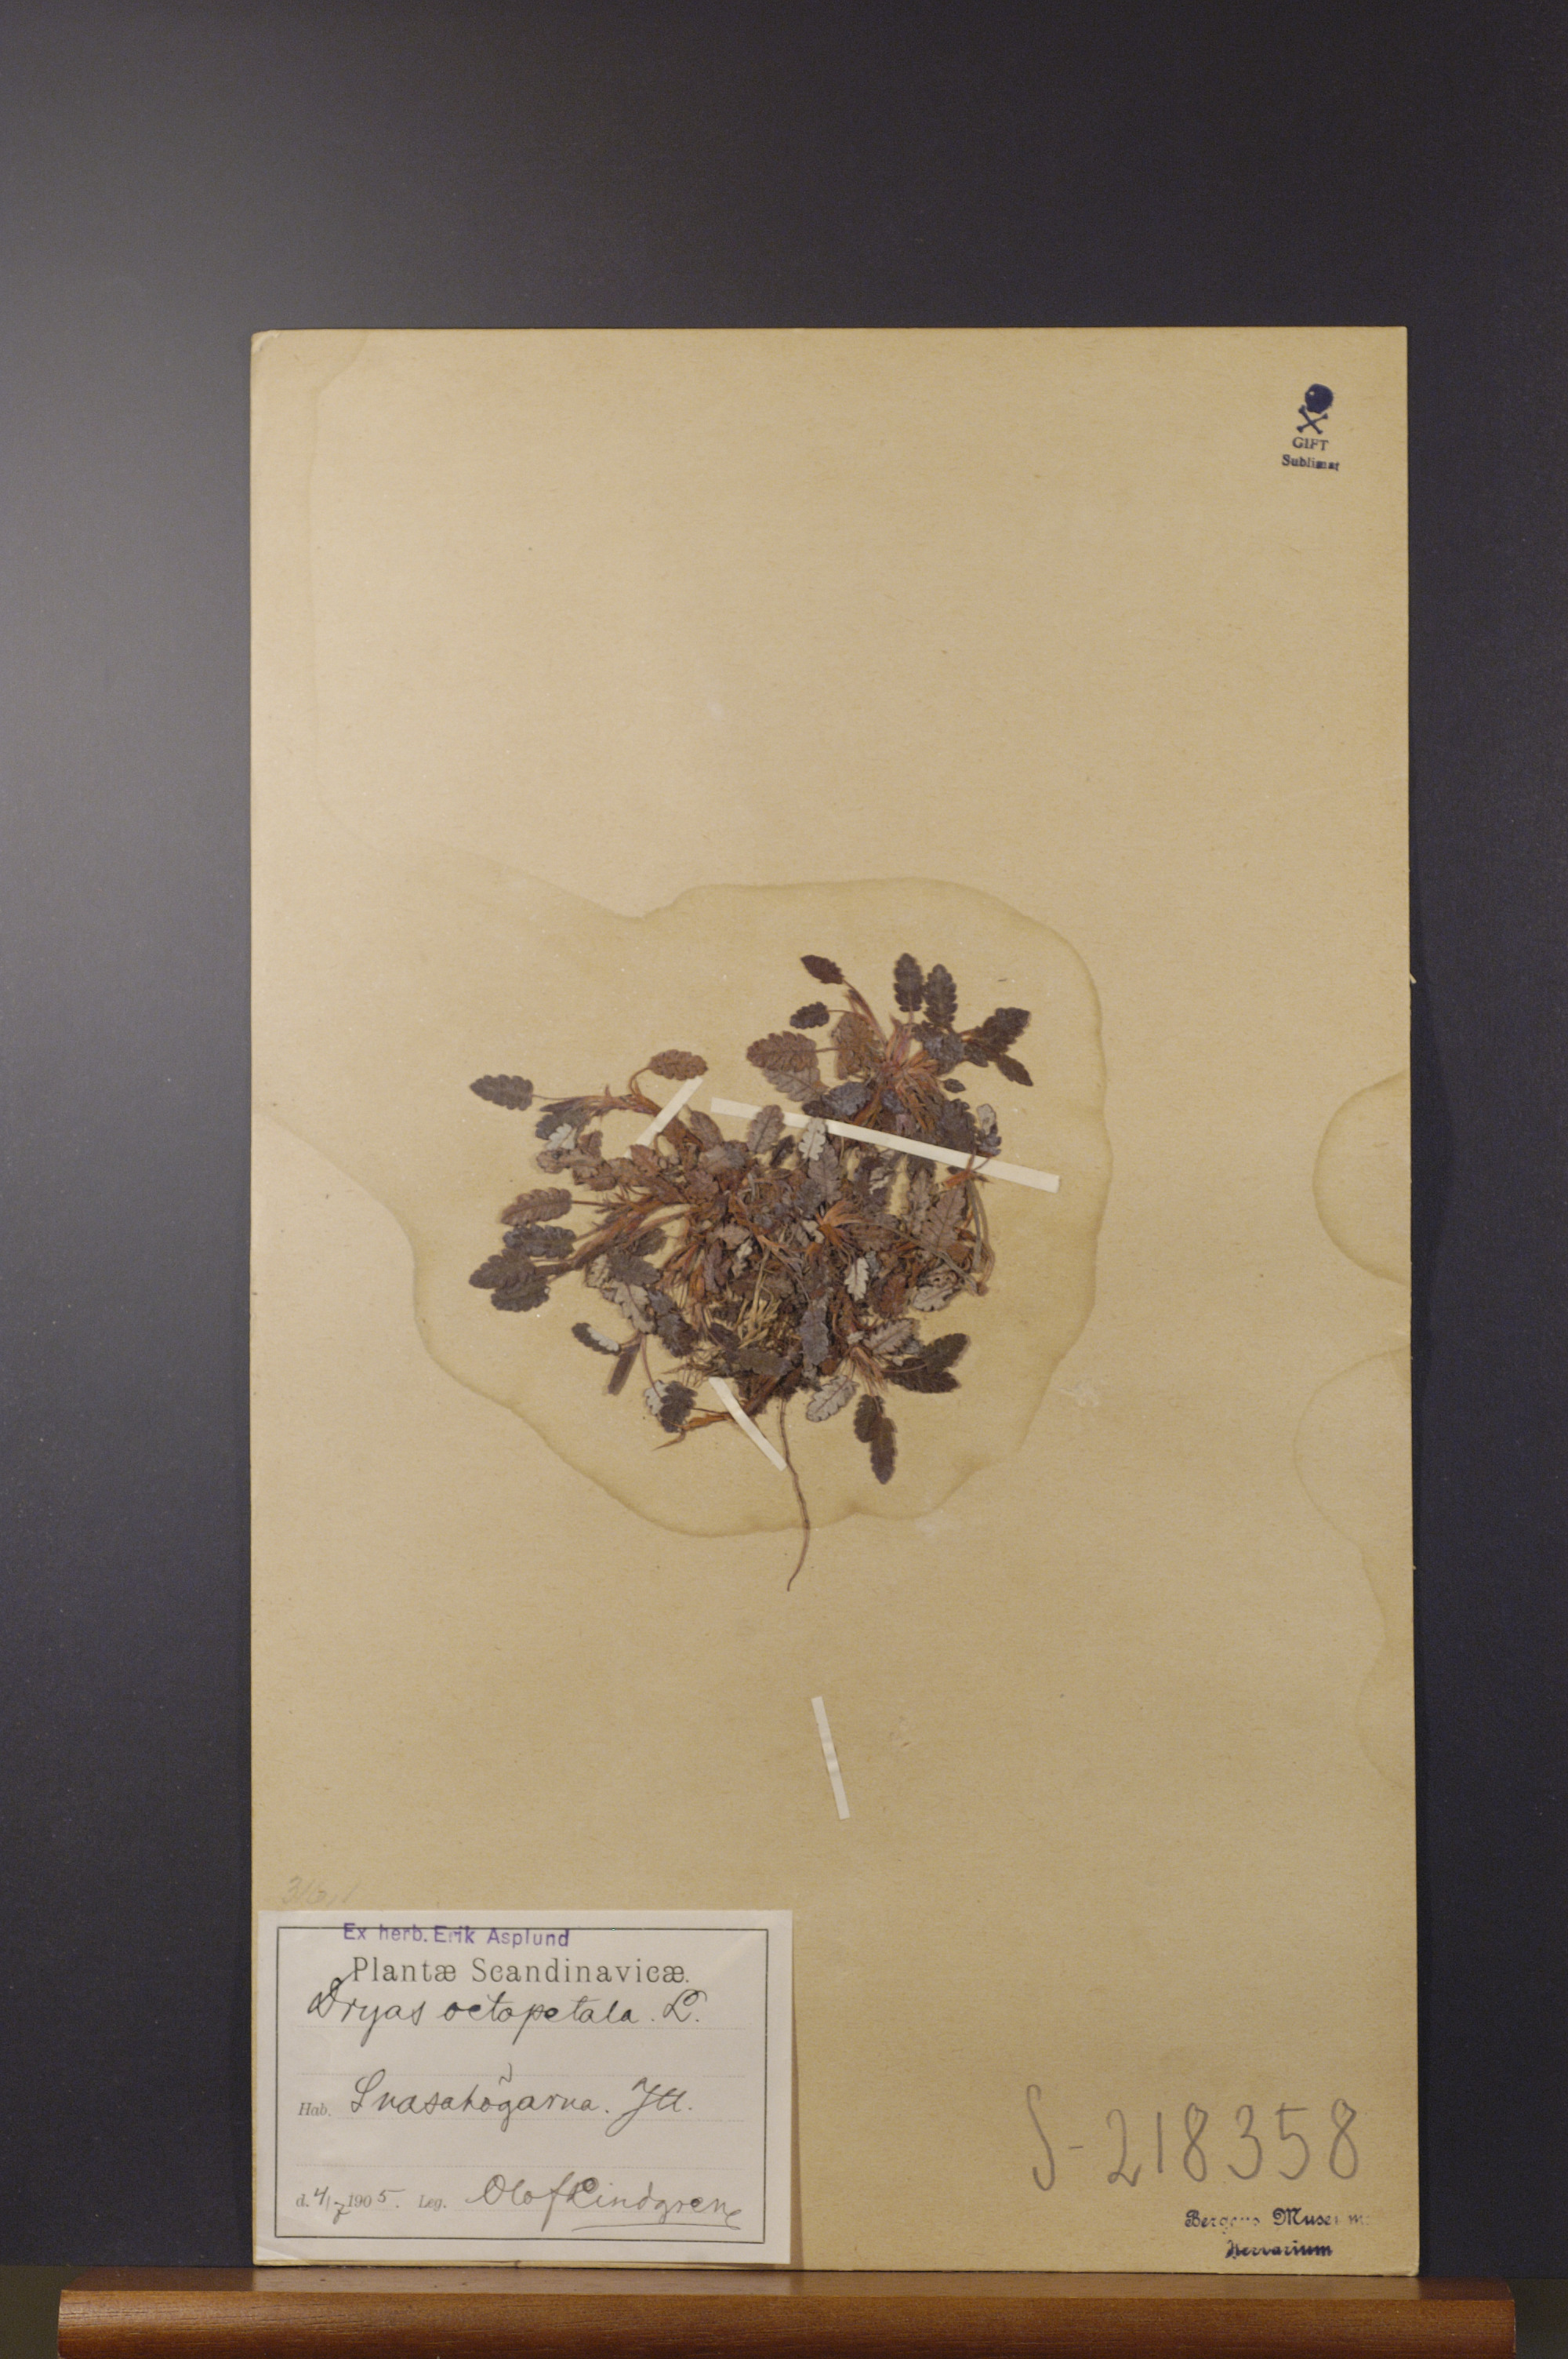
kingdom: Plantae
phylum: Tracheophyta
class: Magnoliopsida
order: Rosales
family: Rosaceae
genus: Dryas
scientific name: Dryas octopetala
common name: Eight-petal mountain-avens
